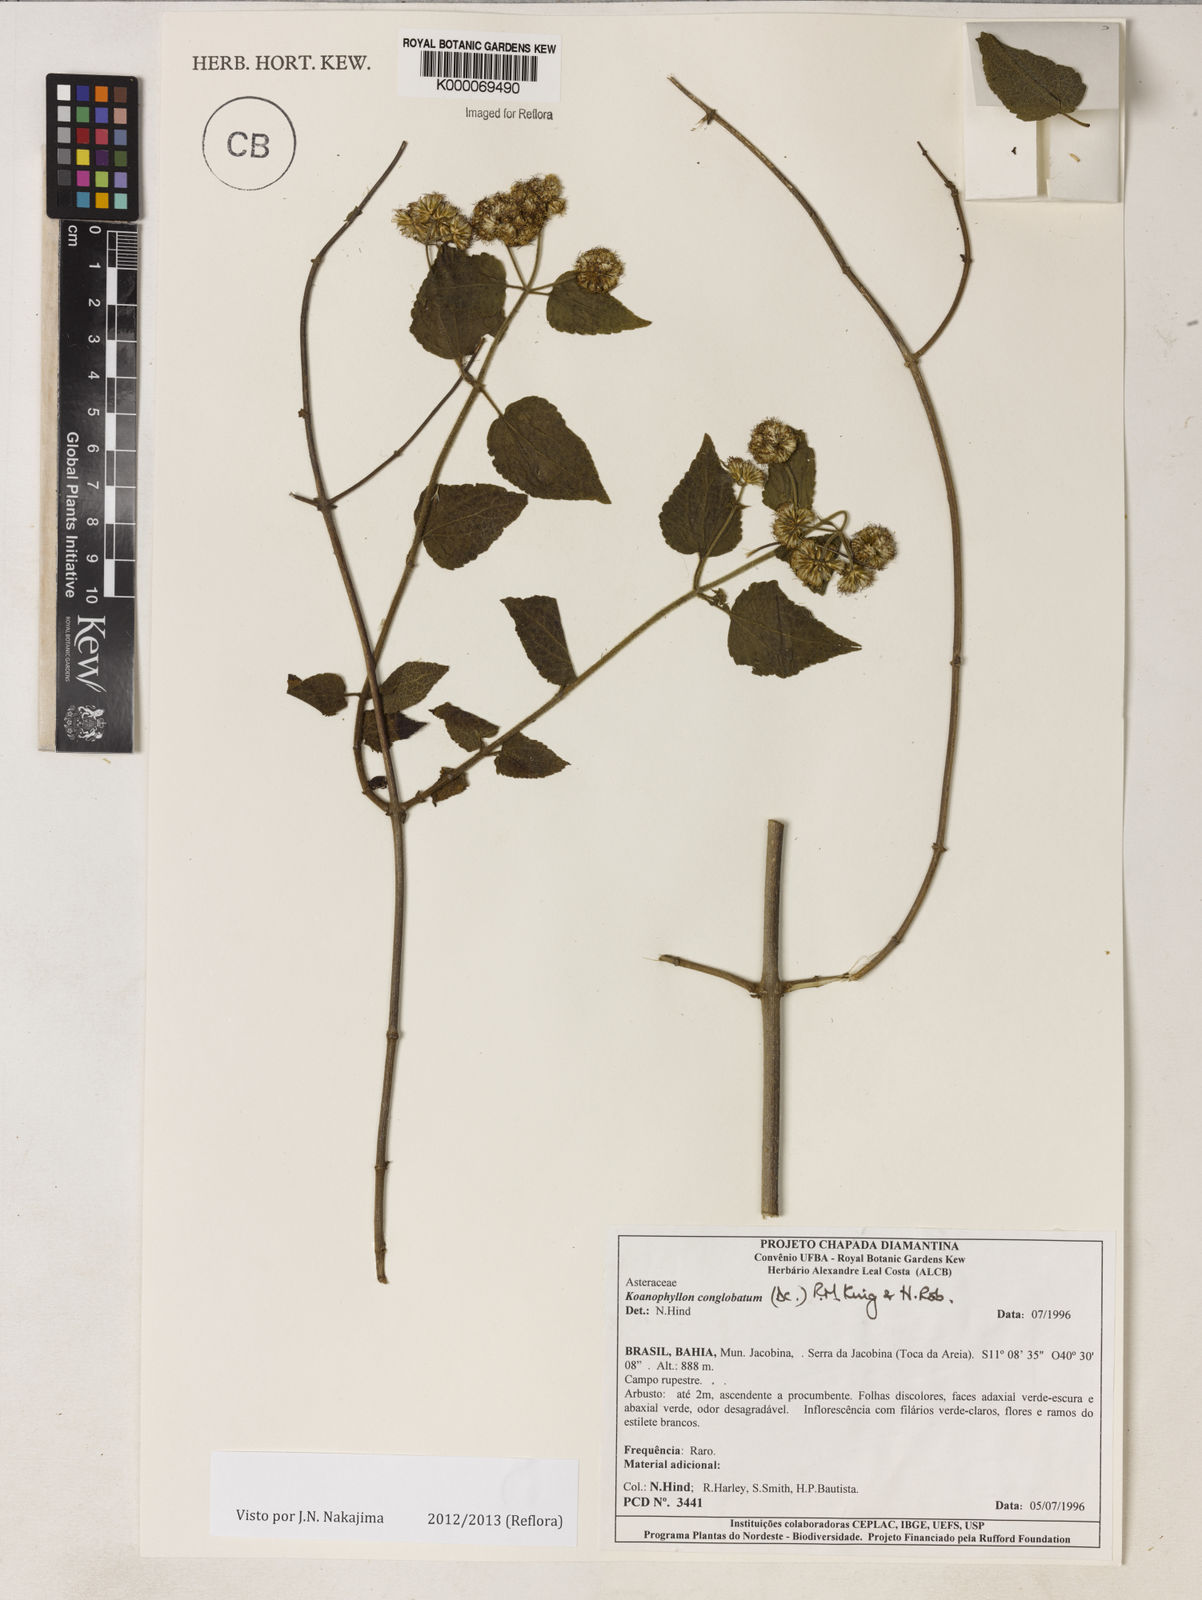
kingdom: Plantae
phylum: Tracheophyta
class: Magnoliopsida
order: Asterales
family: Asteraceae
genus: Koanophyllon
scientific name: Koanophyllon conglobatum
